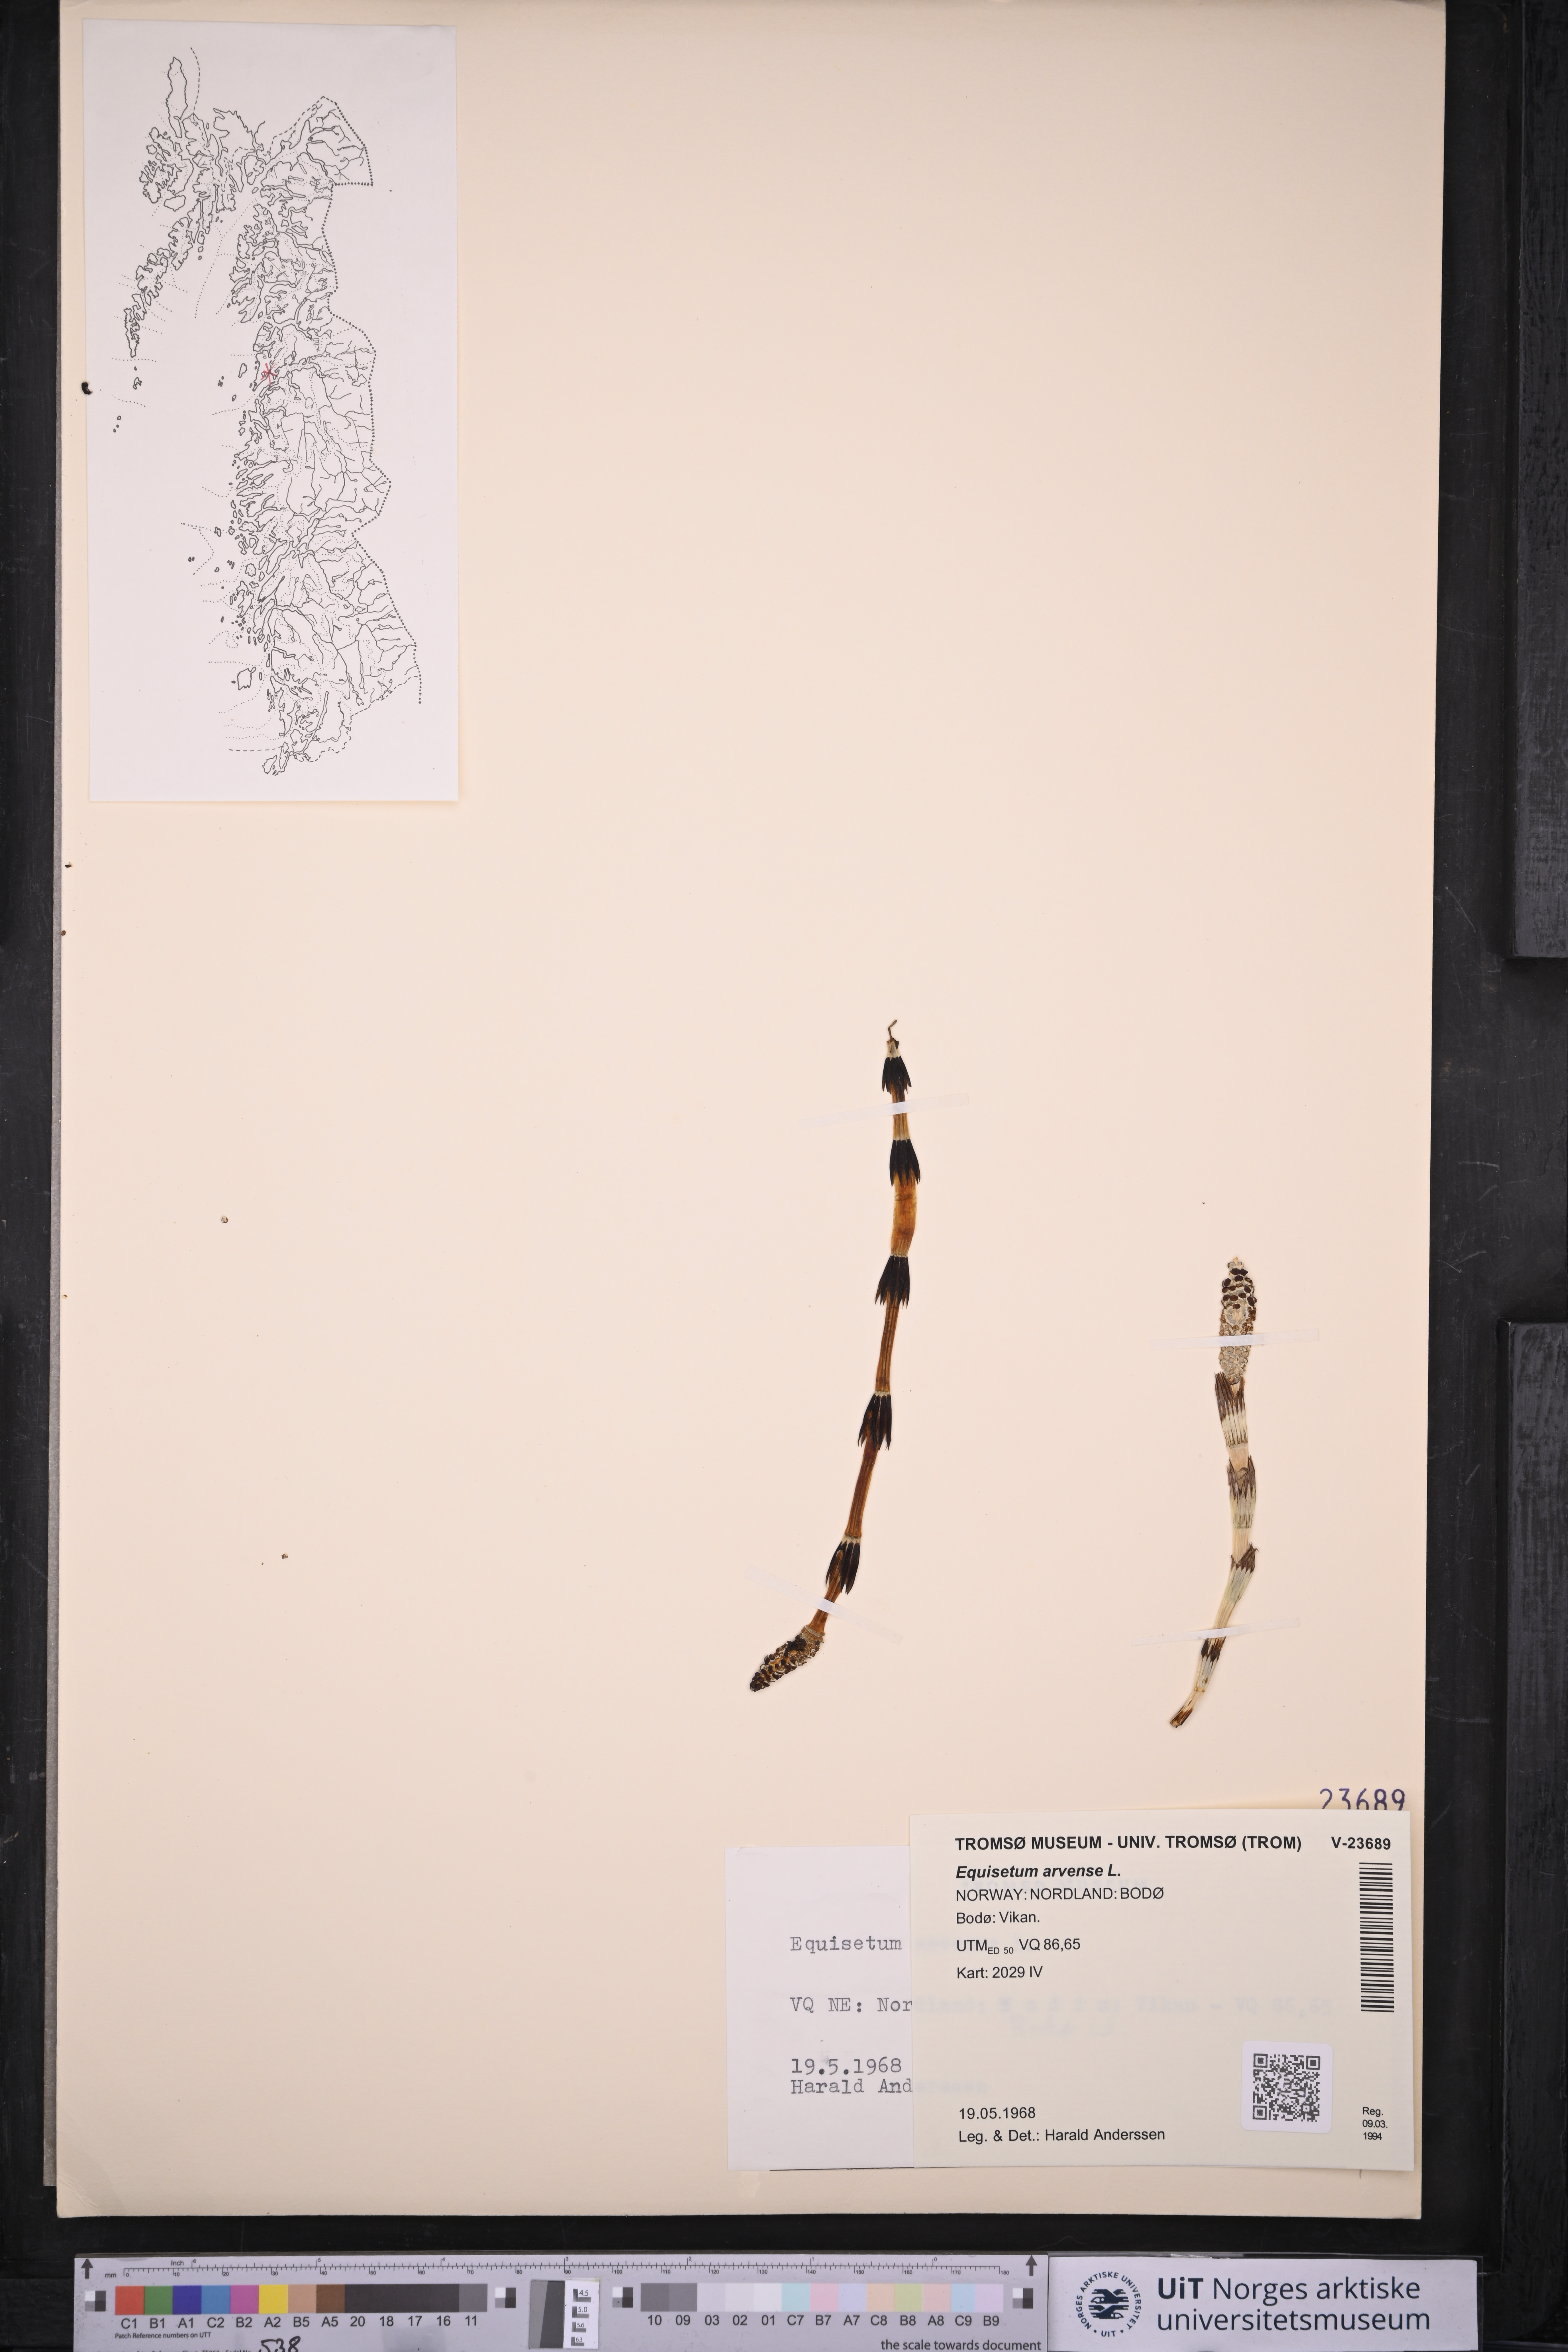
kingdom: Plantae
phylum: Tracheophyta
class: Polypodiopsida
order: Equisetales
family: Equisetaceae
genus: Equisetum
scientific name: Equisetum arvense
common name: Field horsetail
